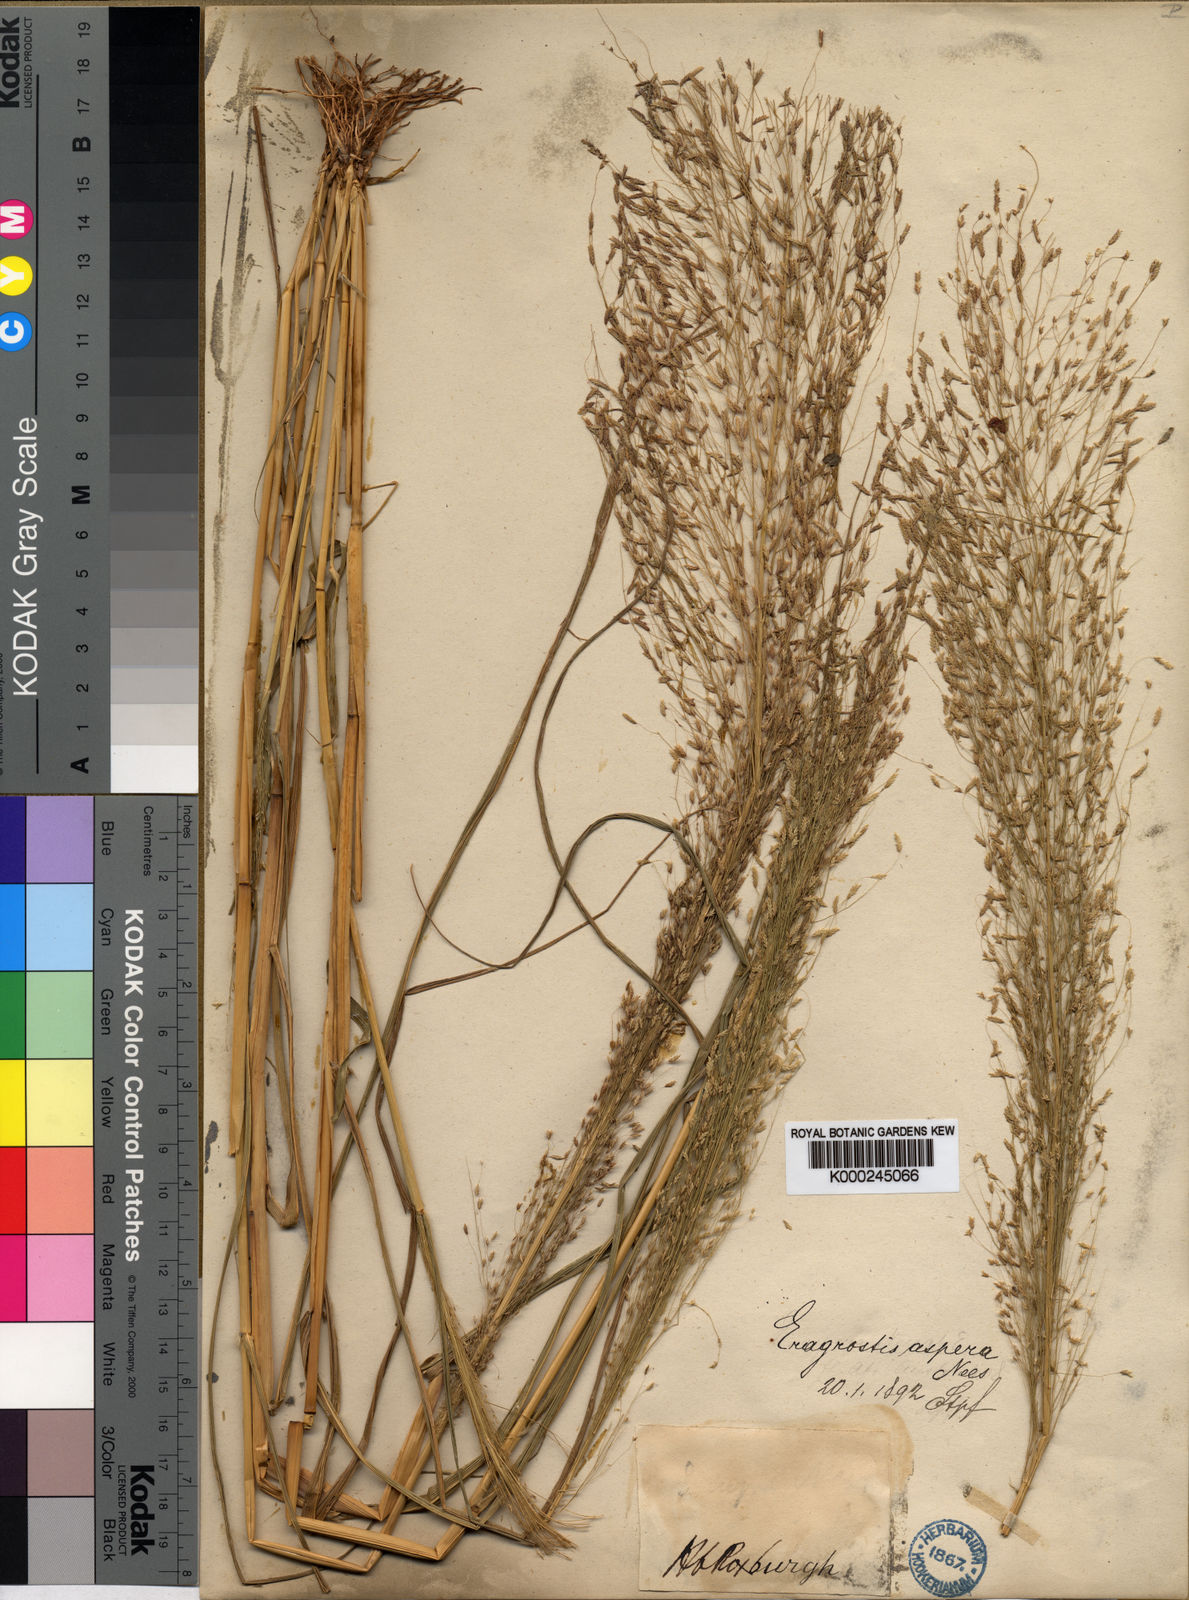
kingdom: Plantae
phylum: Tracheophyta
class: Liliopsida
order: Poales
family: Poaceae
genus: Eragrostis
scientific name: Eragrostis aspera
